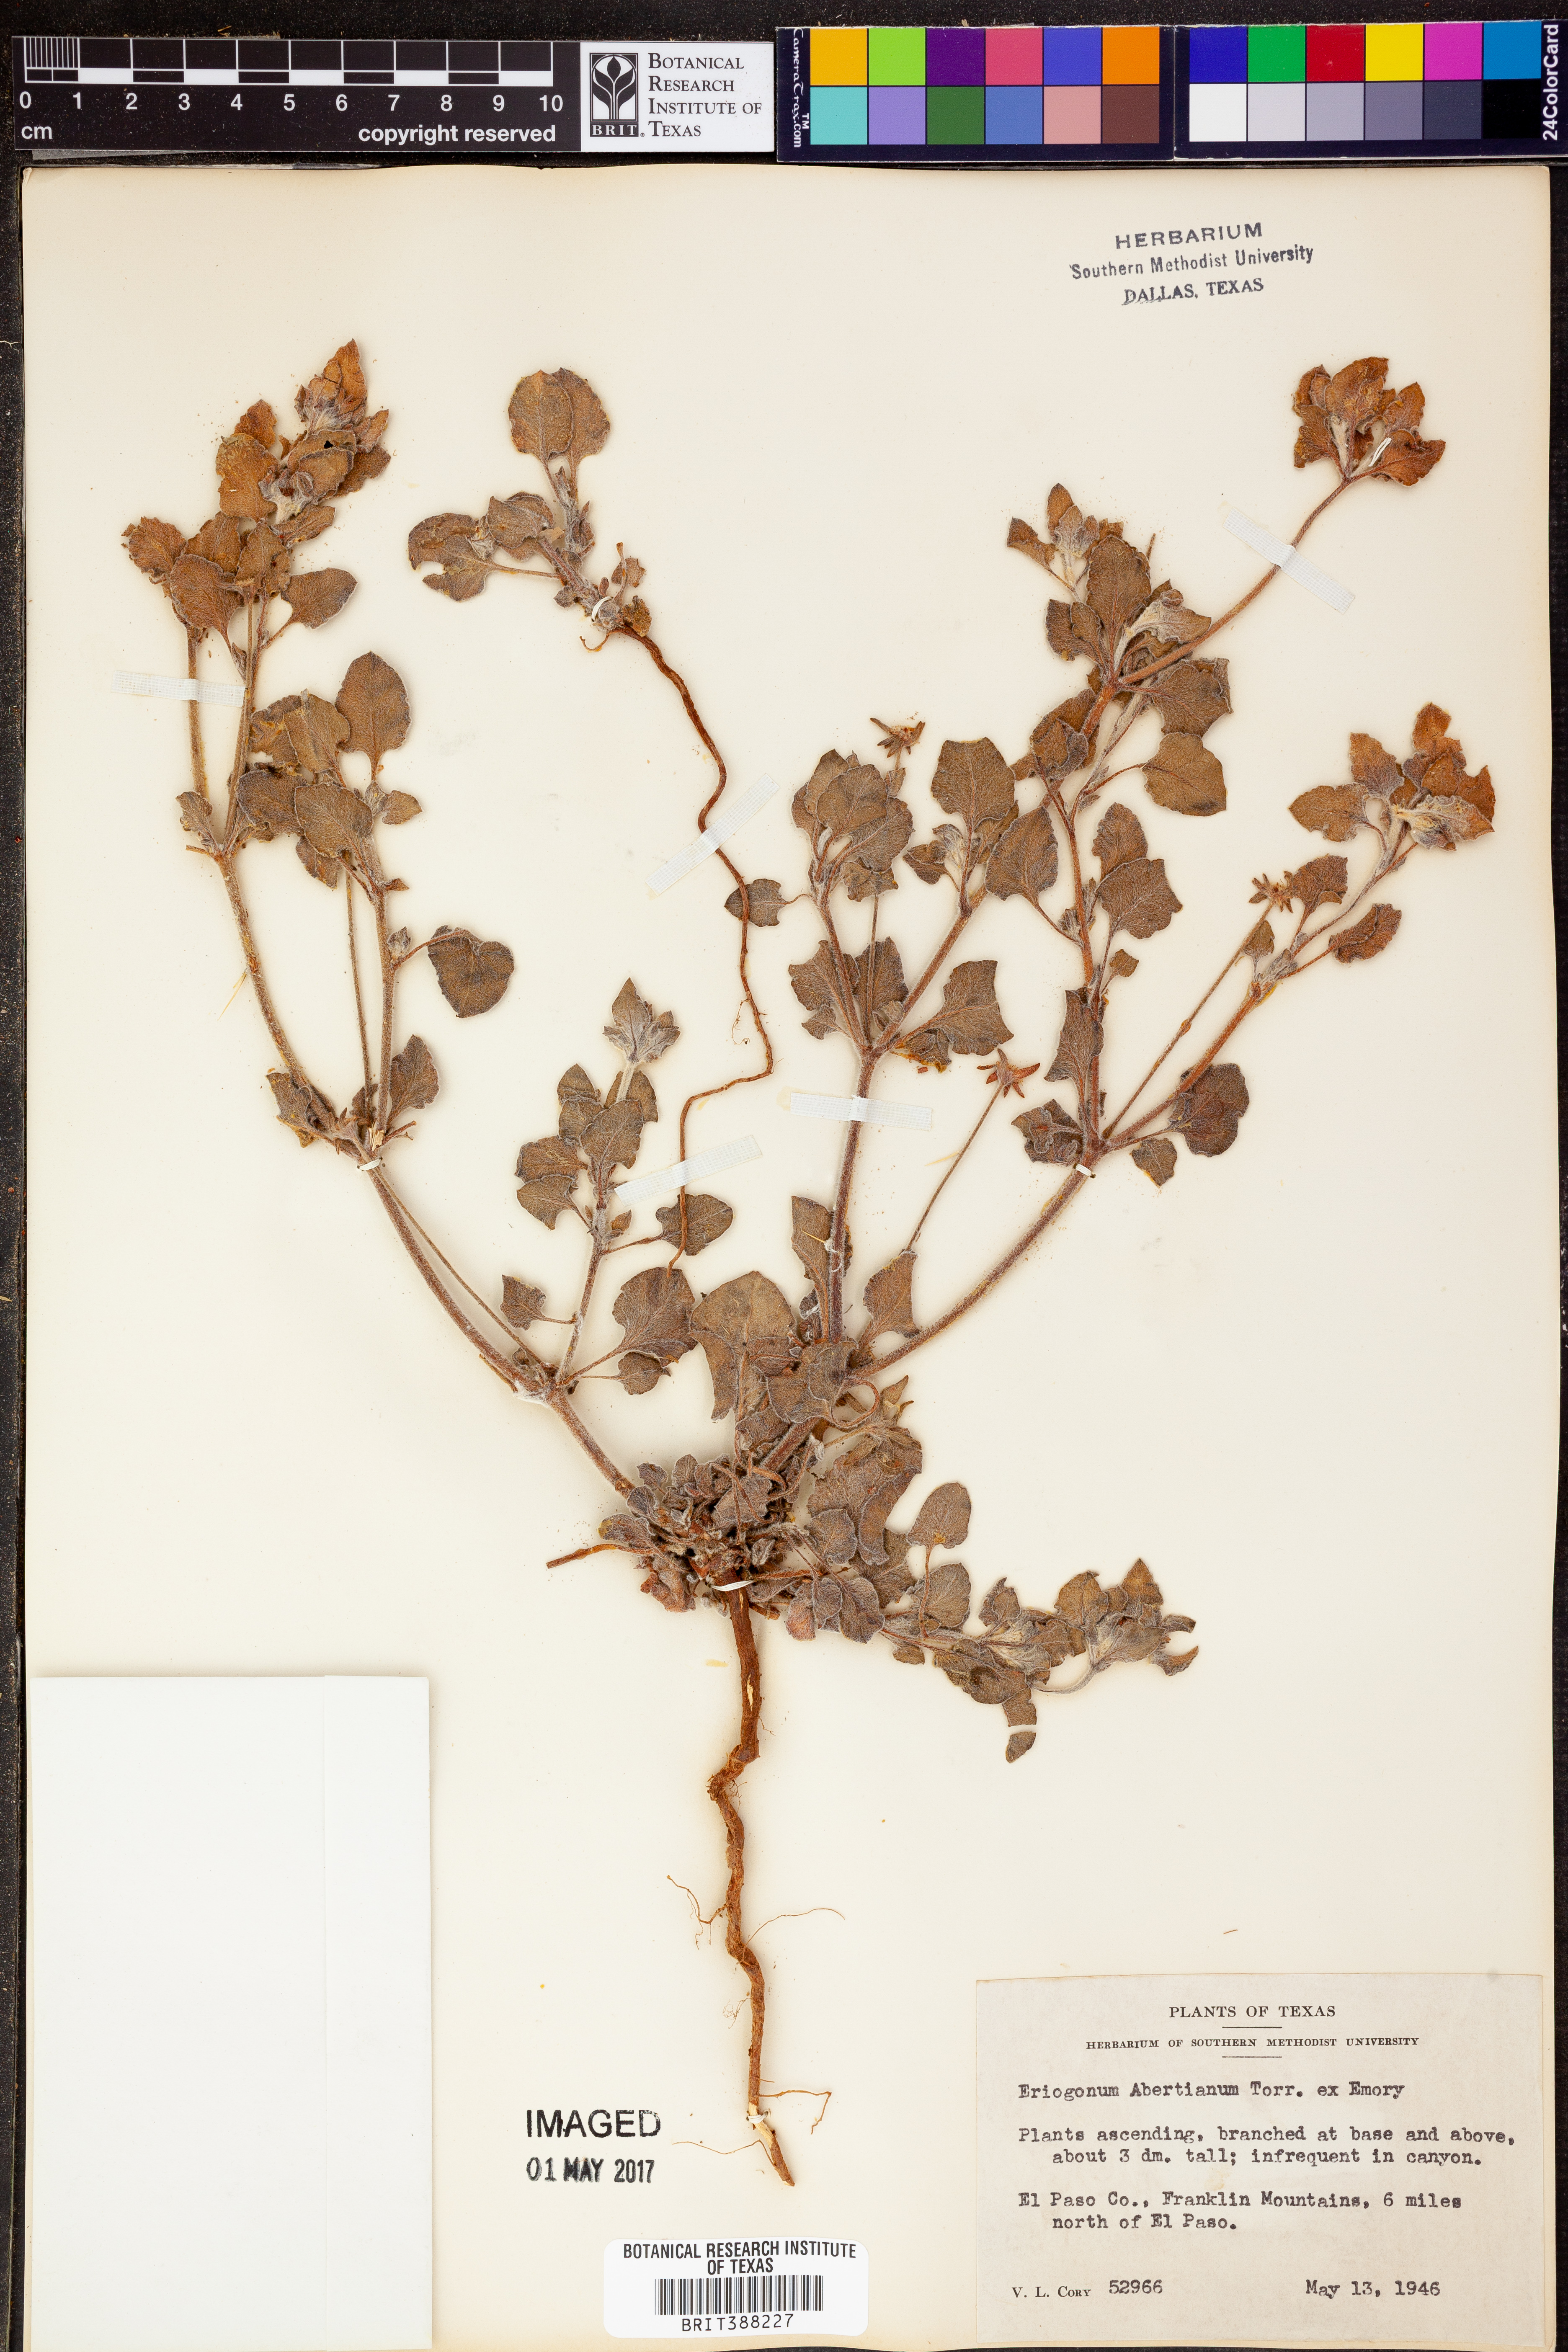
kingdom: Plantae
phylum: Tracheophyta
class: Magnoliopsida
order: Caryophyllales
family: Polygonaceae
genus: Eriogonum
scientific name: Eriogonum abertianum
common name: Abert's wild buckwheat
